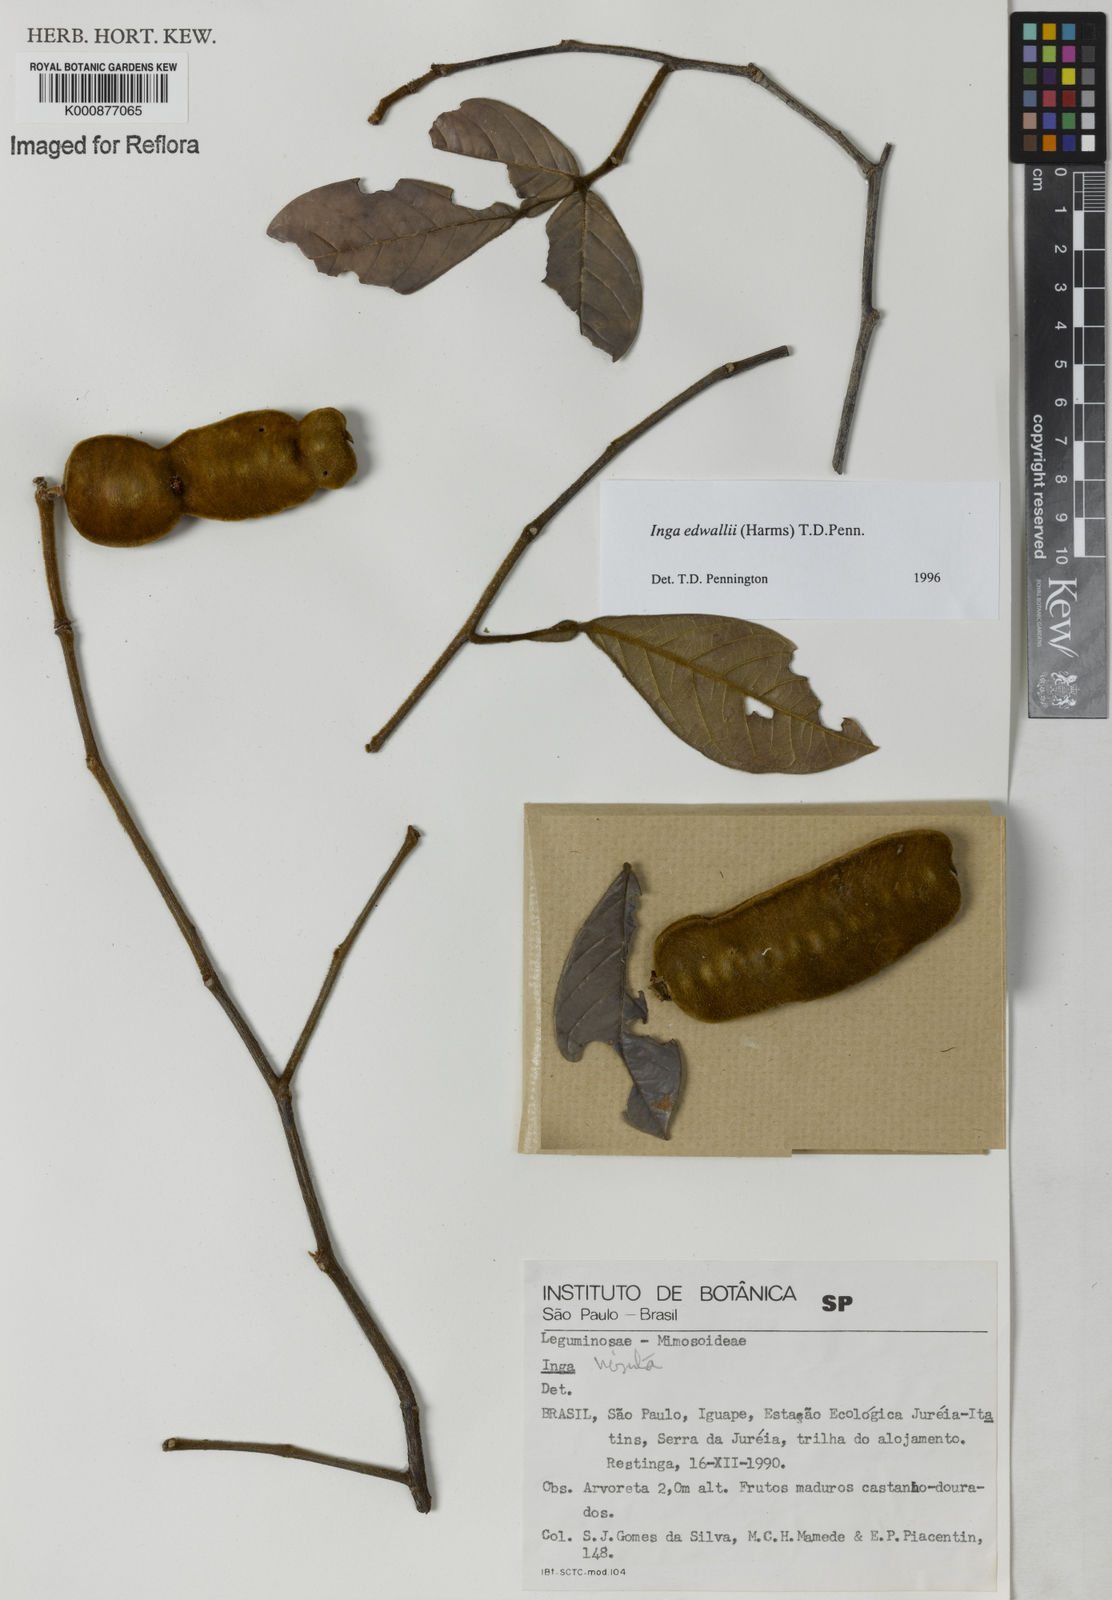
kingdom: Plantae
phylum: Tracheophyta
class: Magnoliopsida
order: Fabales
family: Fabaceae
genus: Inga
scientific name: Inga edwallii
